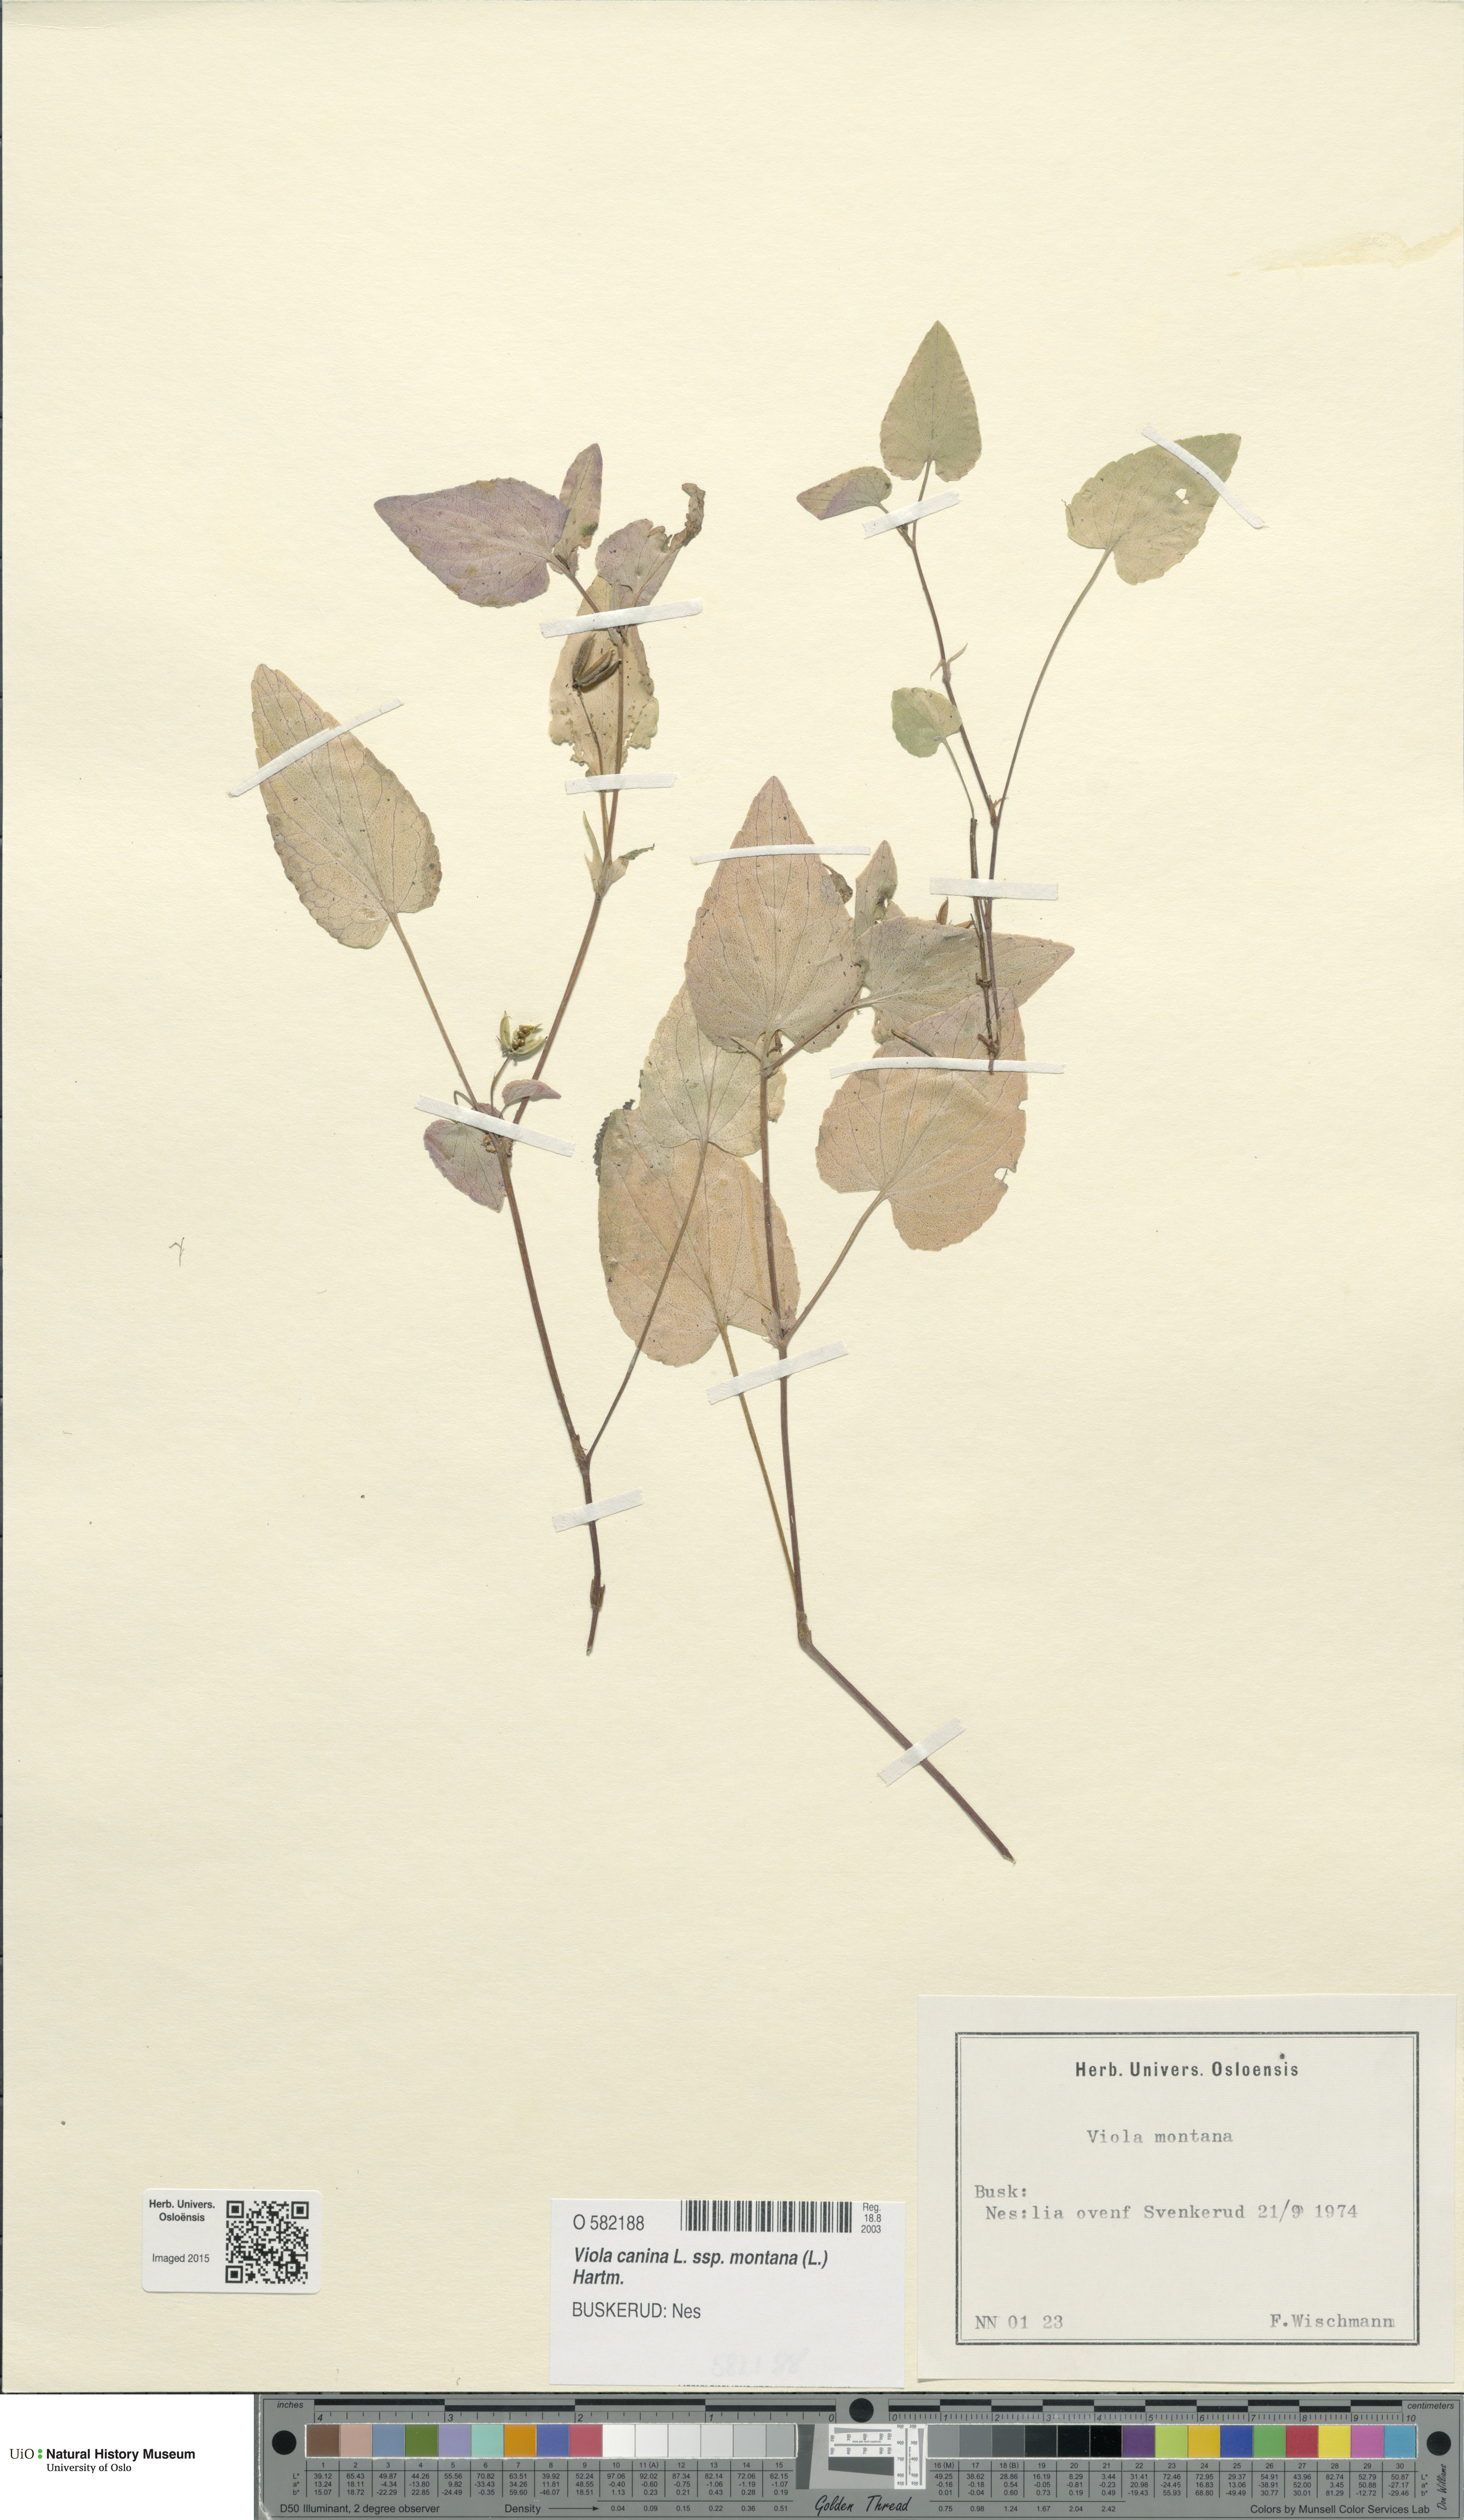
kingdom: Plantae
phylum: Tracheophyta
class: Magnoliopsida
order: Malpighiales
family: Violaceae
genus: Viola
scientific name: Viola ruppii
